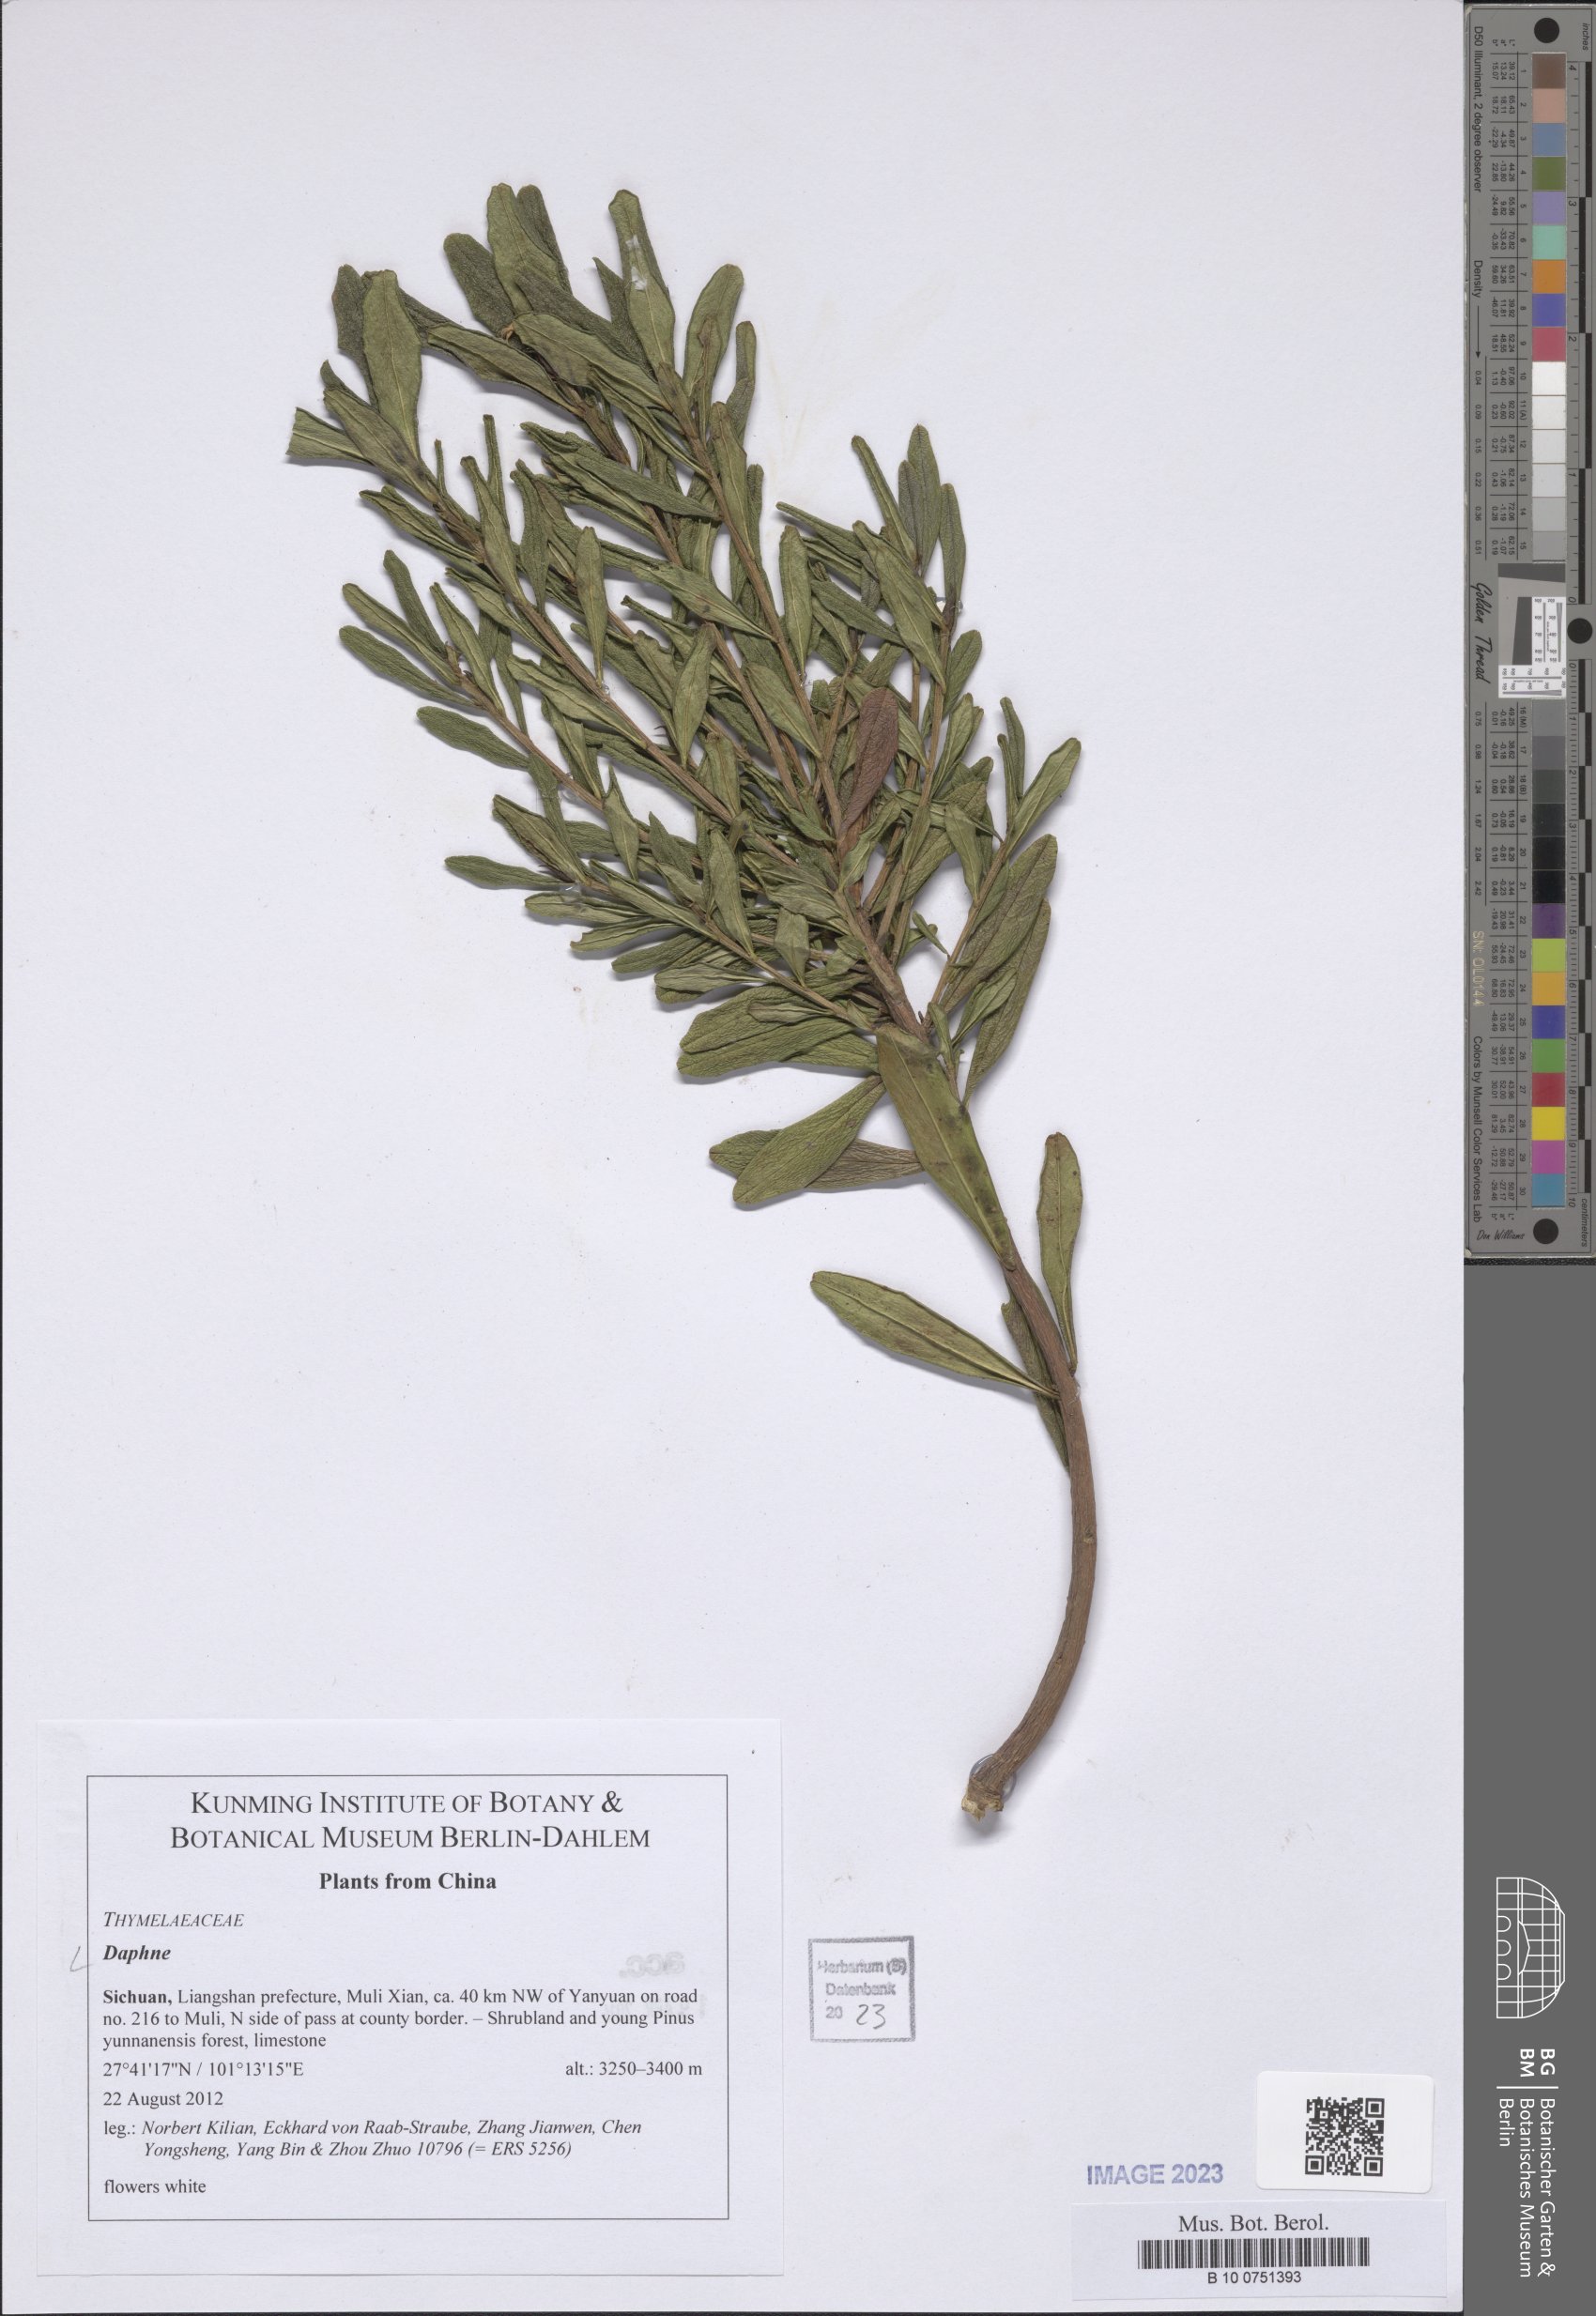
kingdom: Plantae
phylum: Tracheophyta
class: Magnoliopsida
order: Malvales
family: Thymelaeaceae
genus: Daphne
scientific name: Daphne
